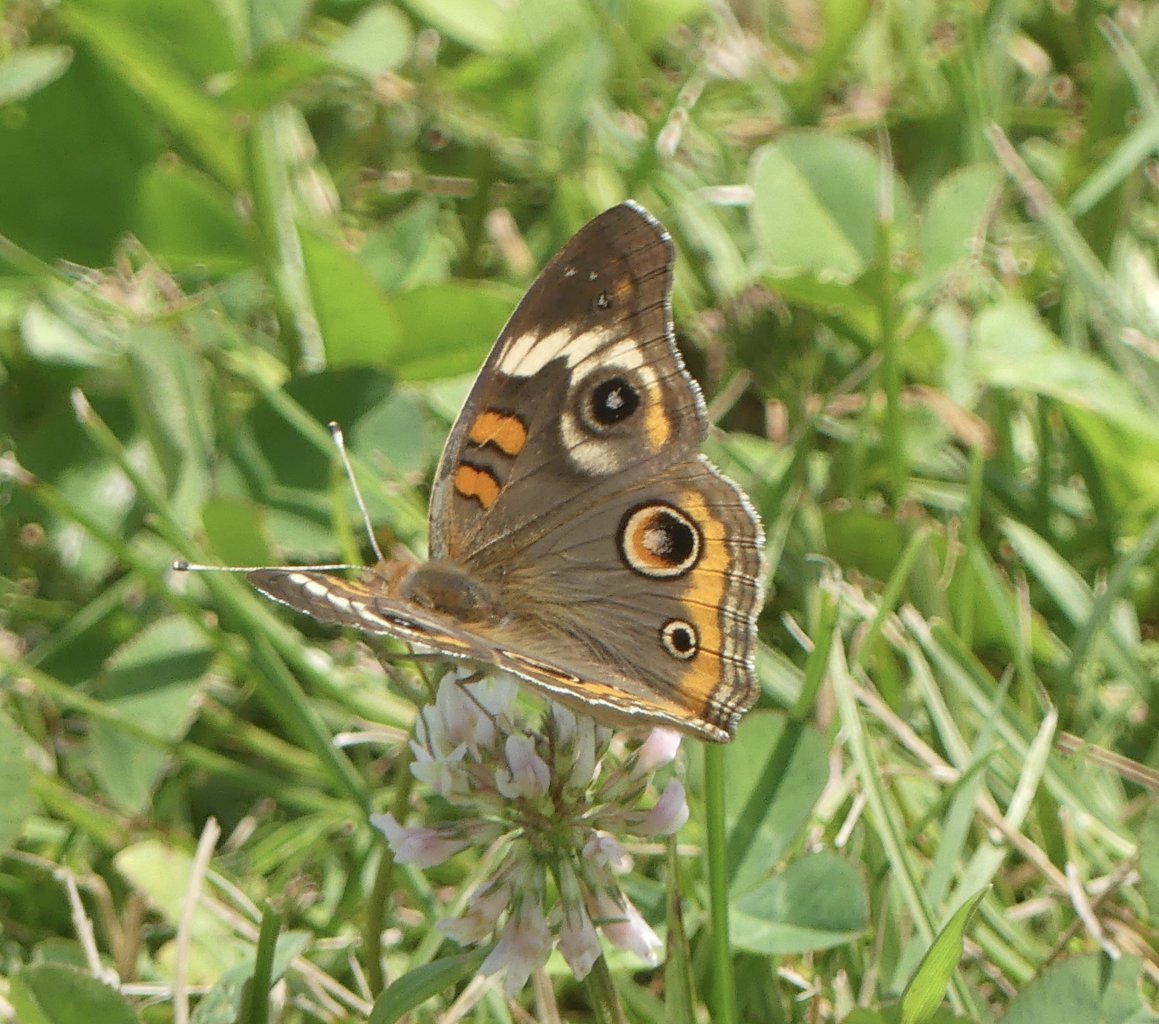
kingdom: Animalia
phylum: Arthropoda
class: Insecta
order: Lepidoptera
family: Nymphalidae
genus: Junonia
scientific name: Junonia coenia
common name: Common Buckeye
